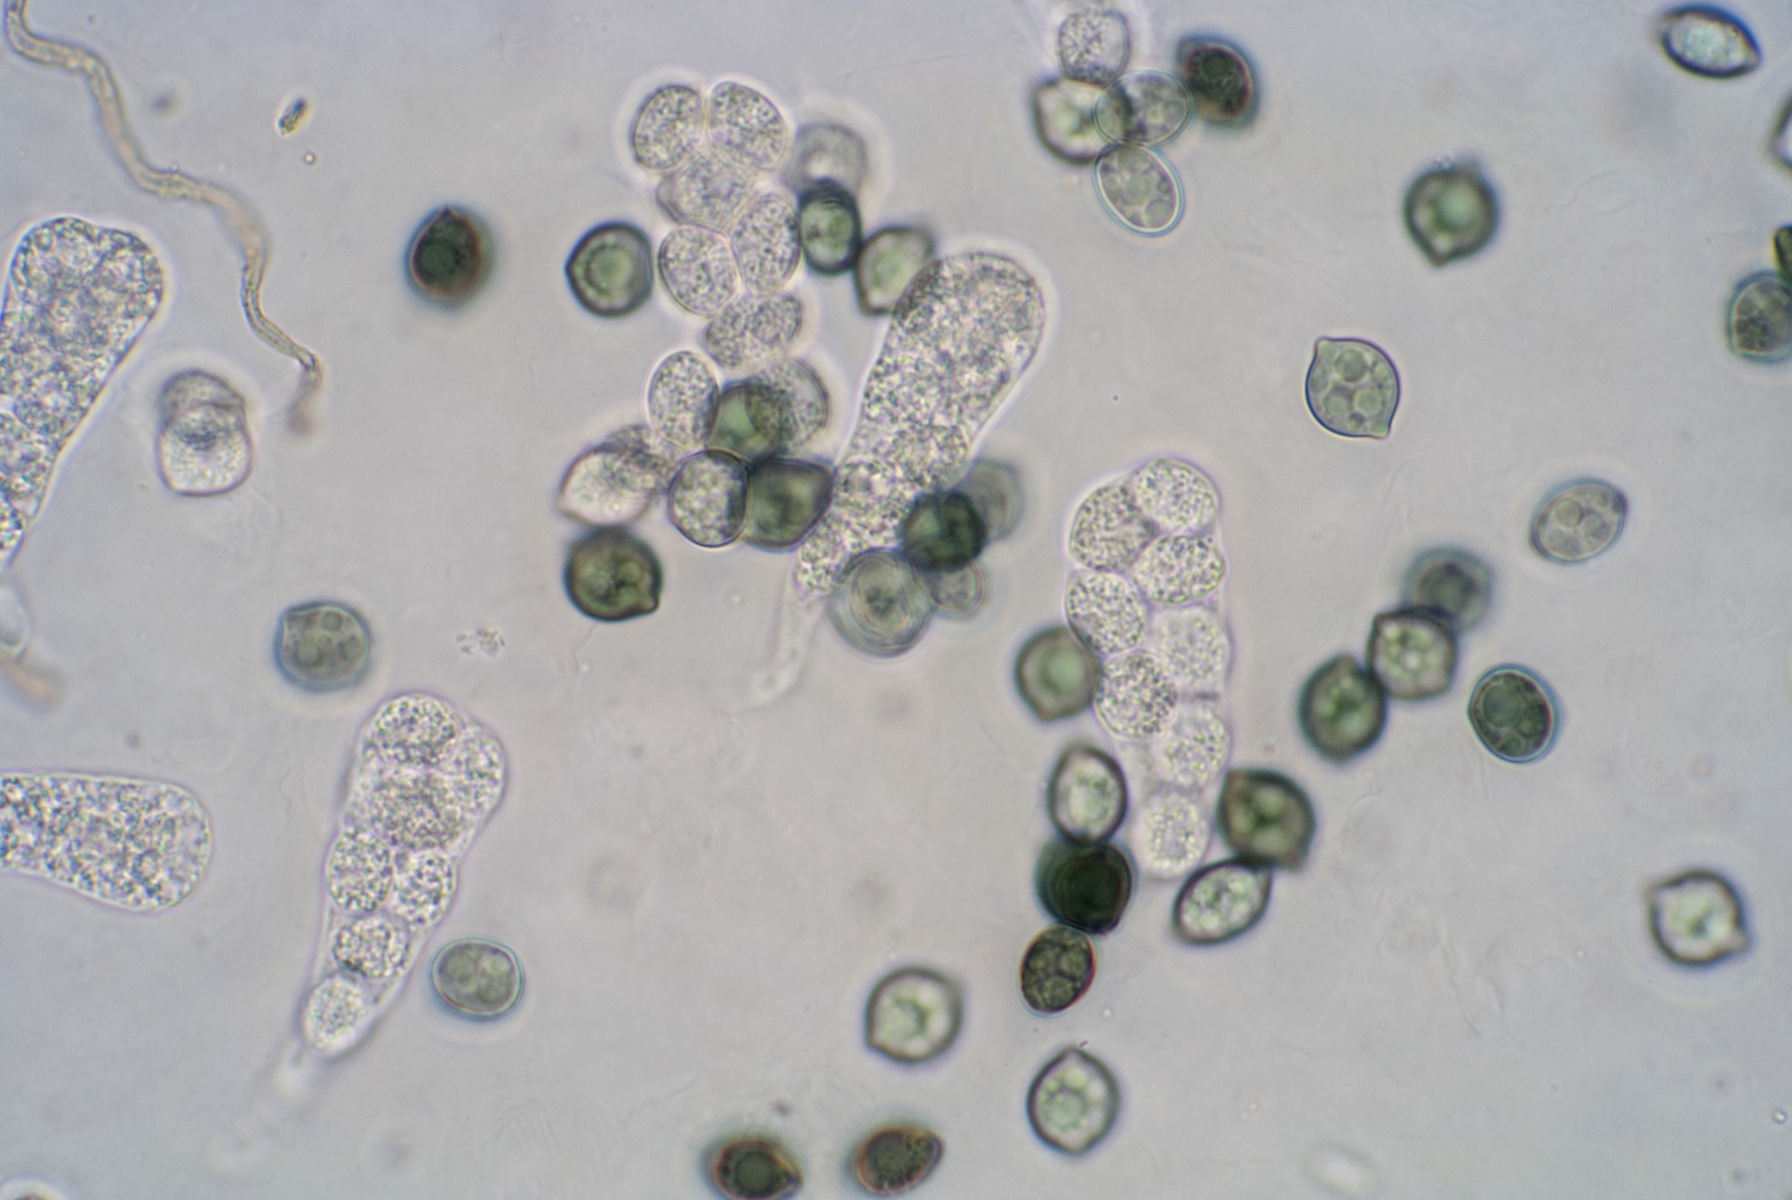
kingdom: Fungi
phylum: Ascomycota
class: Sordariomycetes
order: Sordariales
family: Chaetomiaceae
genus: Chaetomium
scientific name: Chaetomium
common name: søjlekerne
